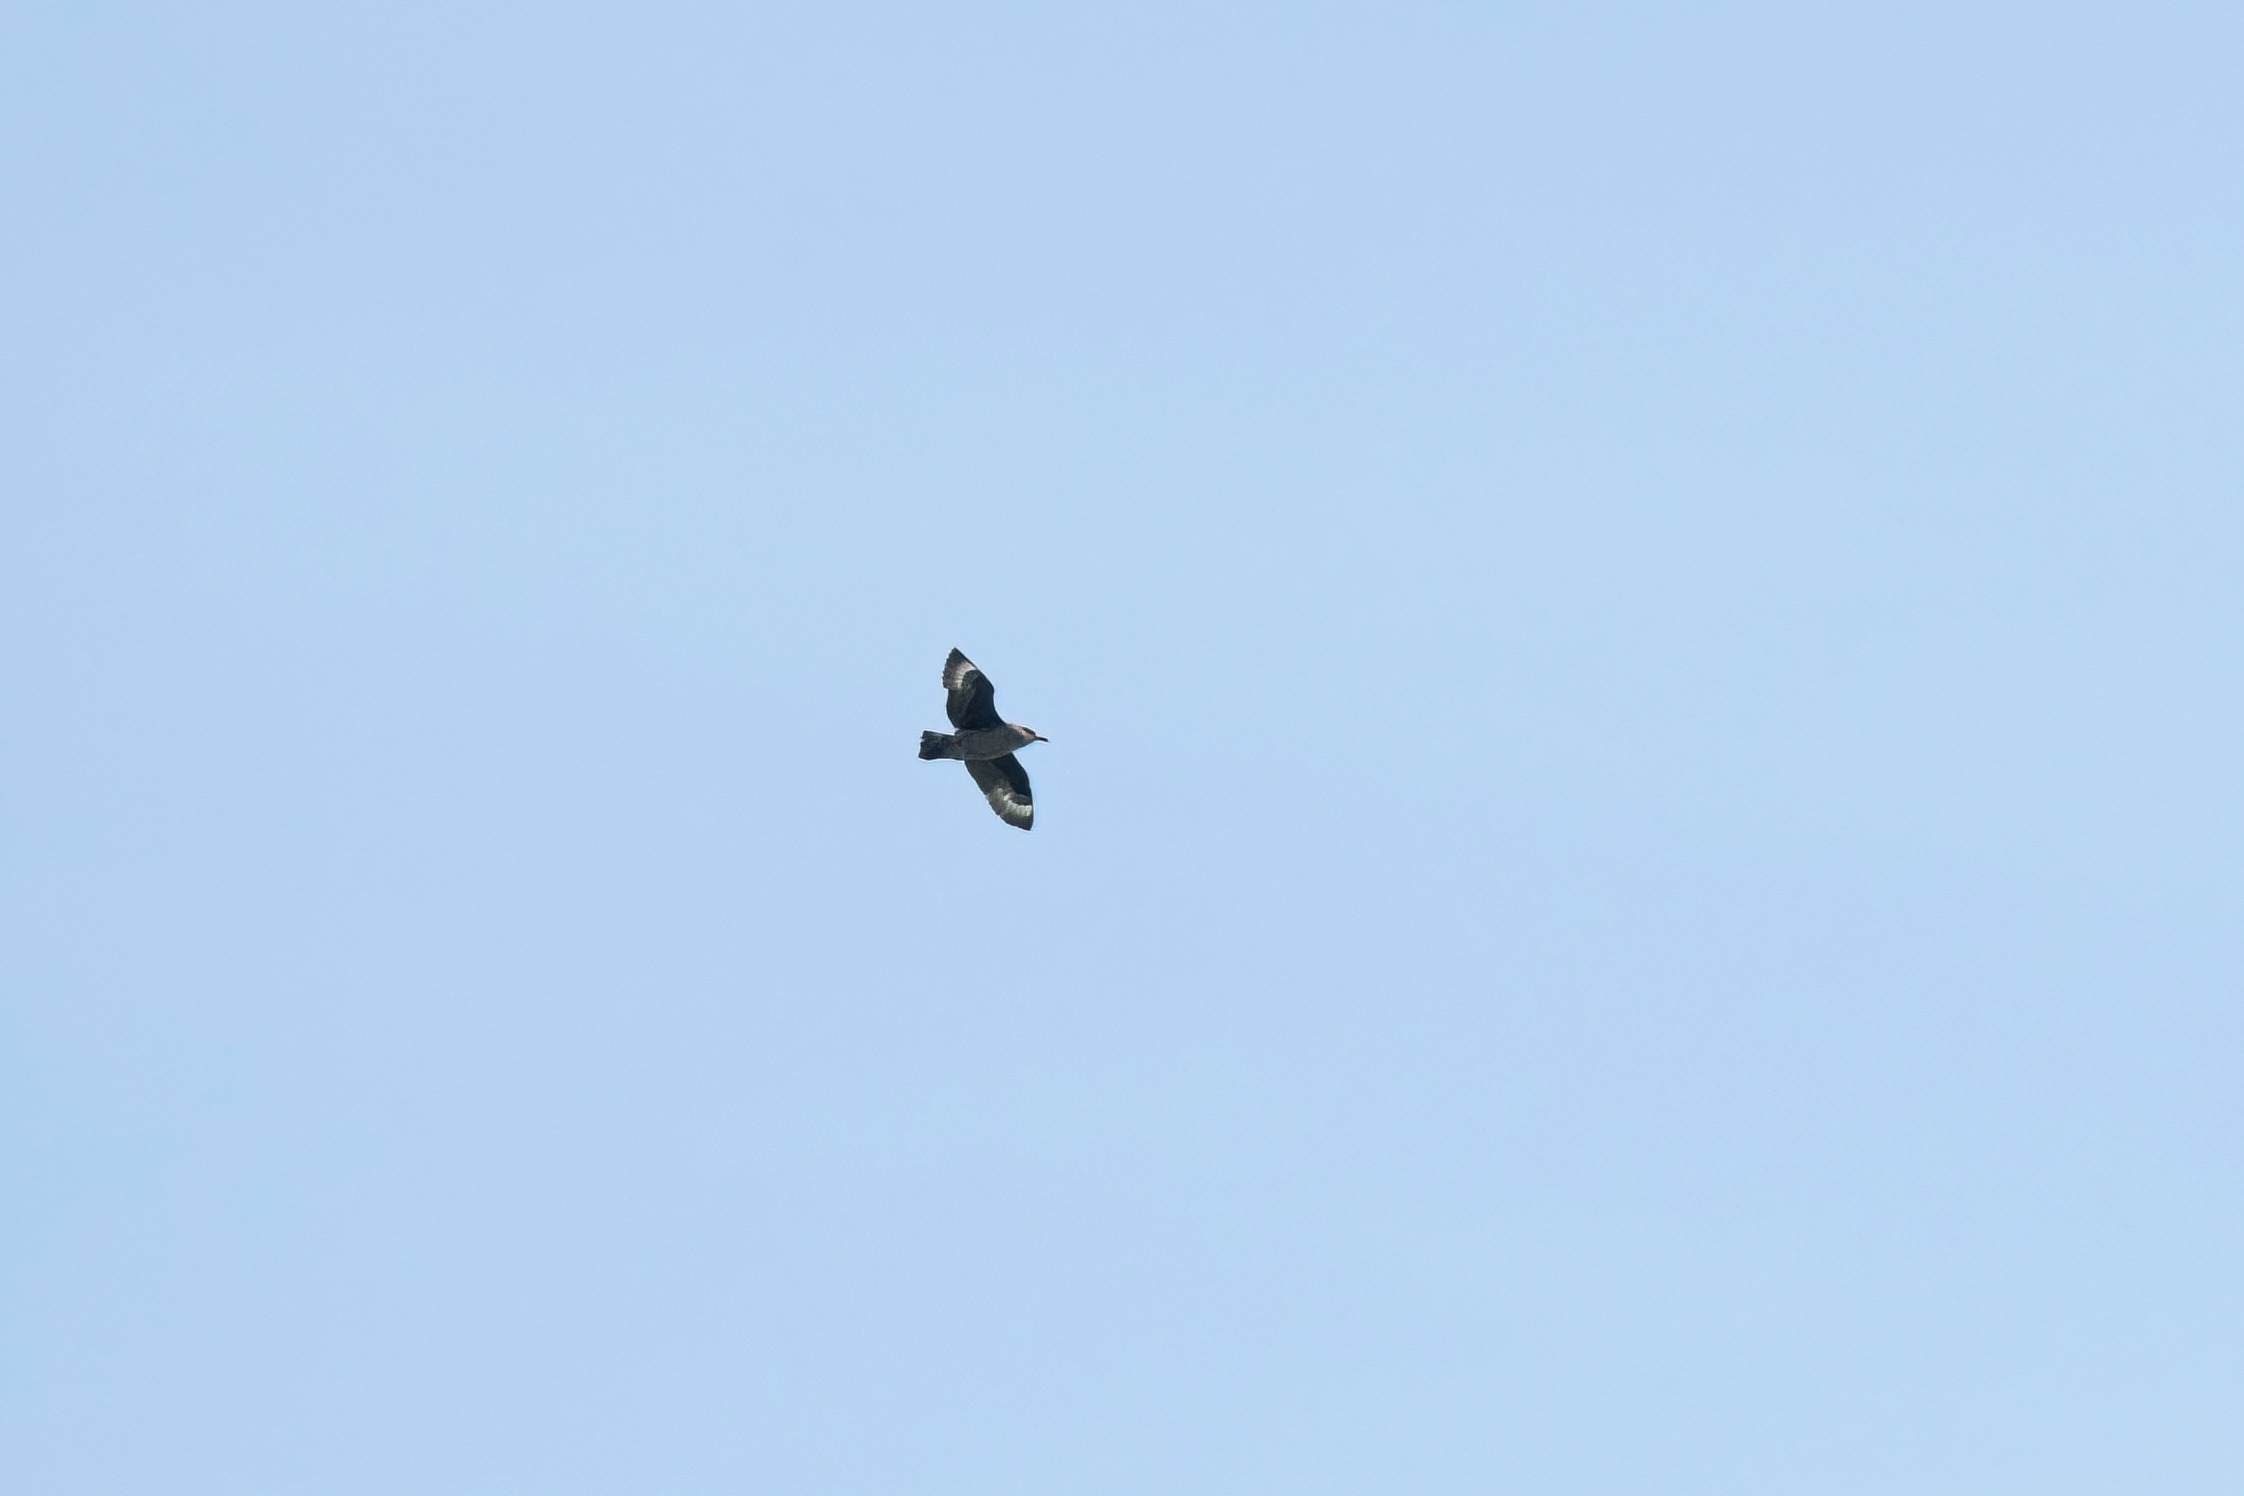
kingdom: Animalia
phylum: Chordata
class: Aves
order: Charadriiformes
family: Stercorariidae
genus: Stercorarius
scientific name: Stercorarius skua
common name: Storkjove
